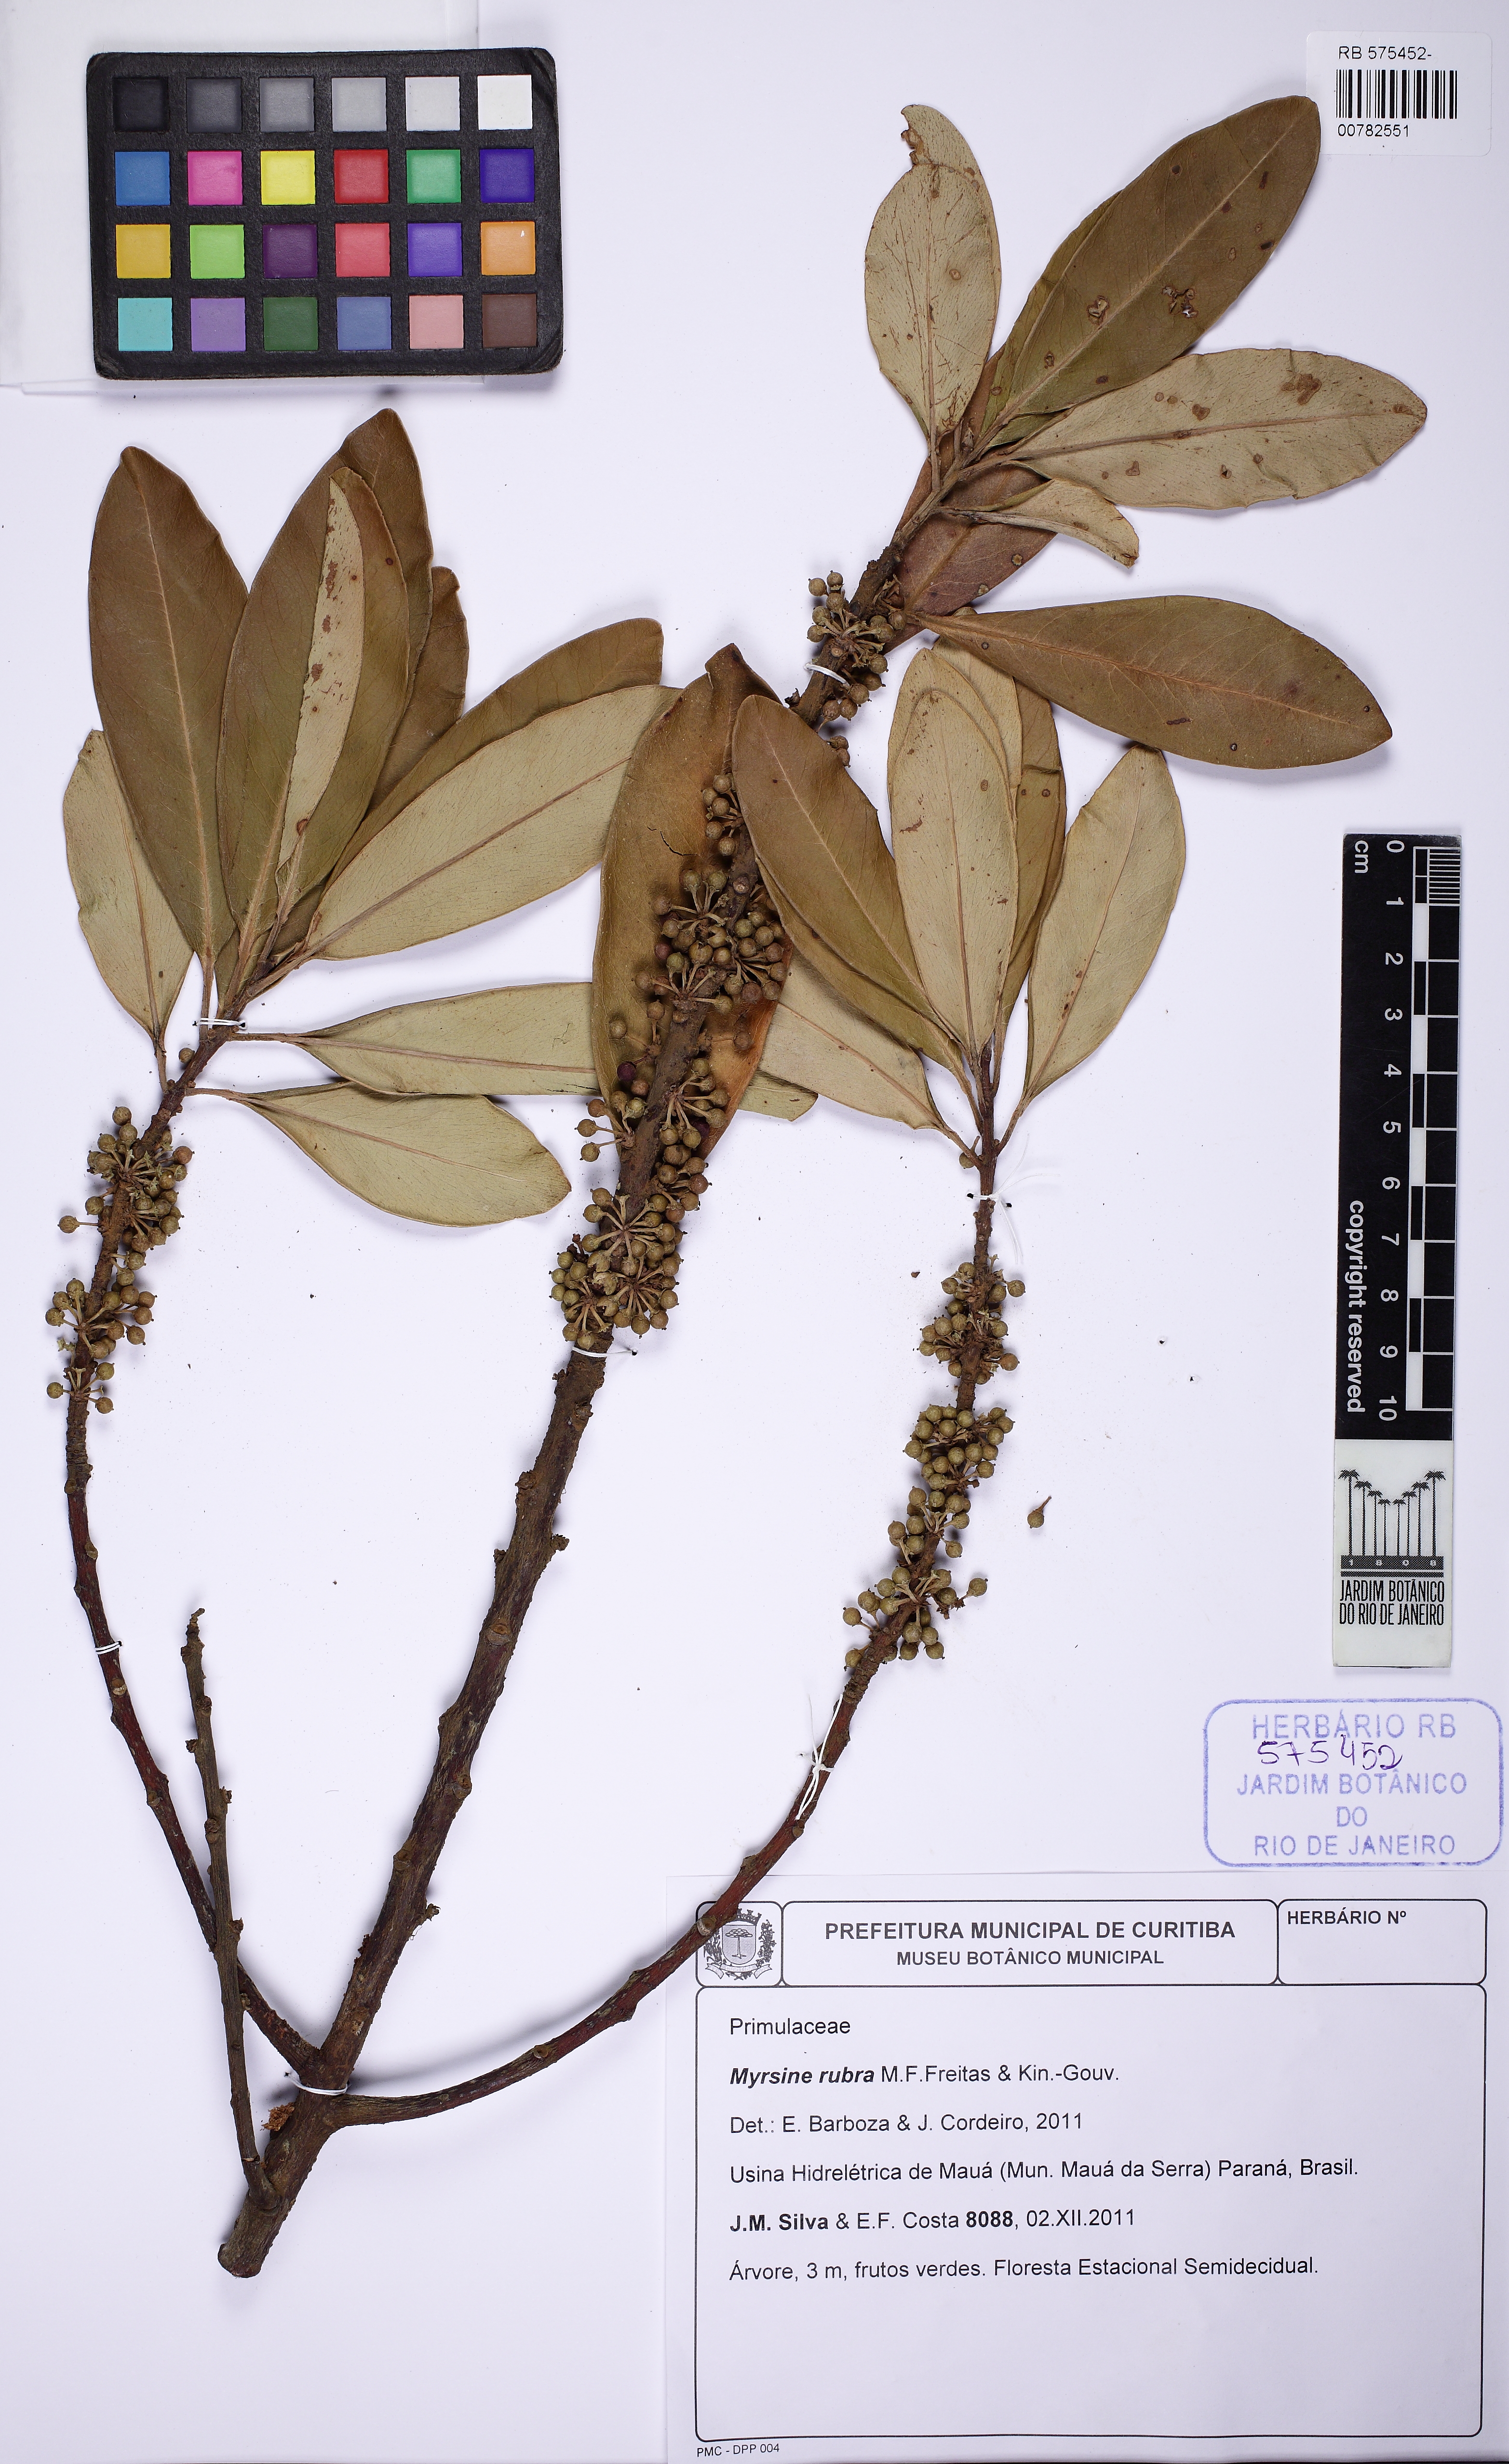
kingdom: Plantae
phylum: Tracheophyta
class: Magnoliopsida
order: Ericales
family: Primulaceae
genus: Myrsine
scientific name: Myrsine rubra
